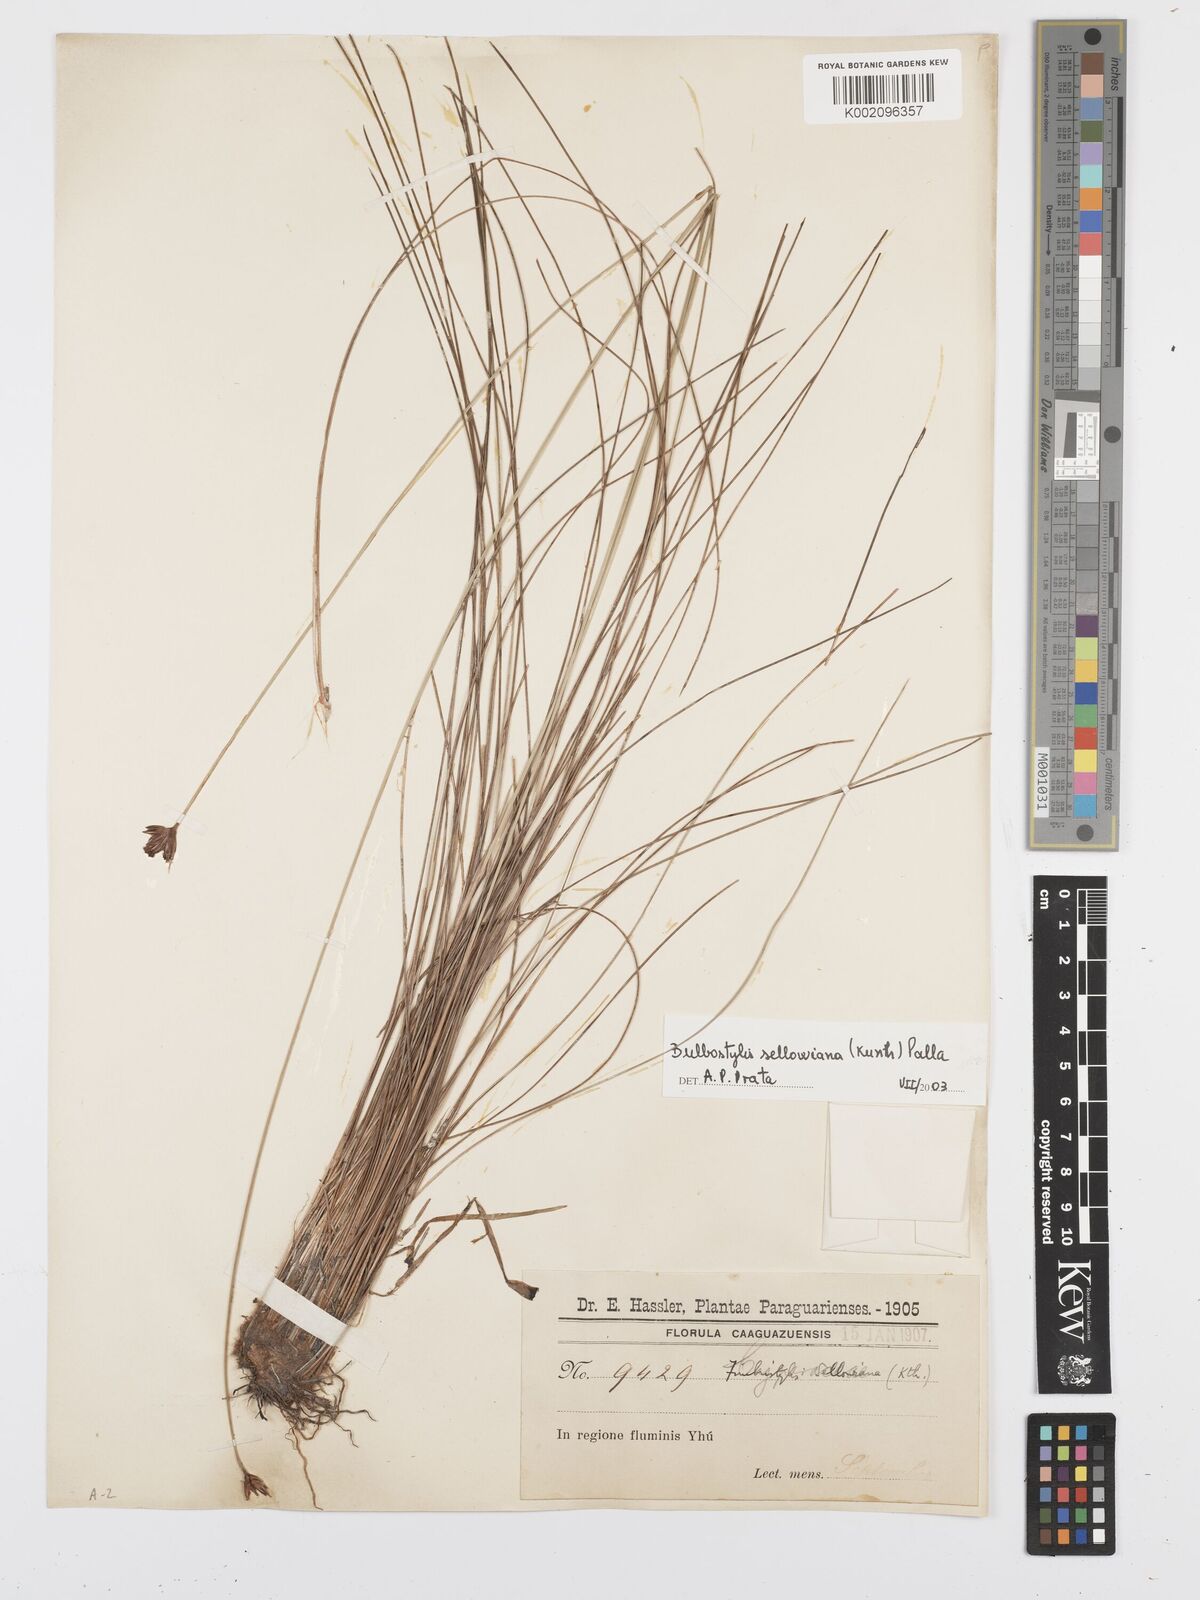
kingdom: Plantae
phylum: Tracheophyta
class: Liliopsida
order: Poales
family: Cyperaceae
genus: Bulbostylis
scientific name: Bulbostylis sellowiana
